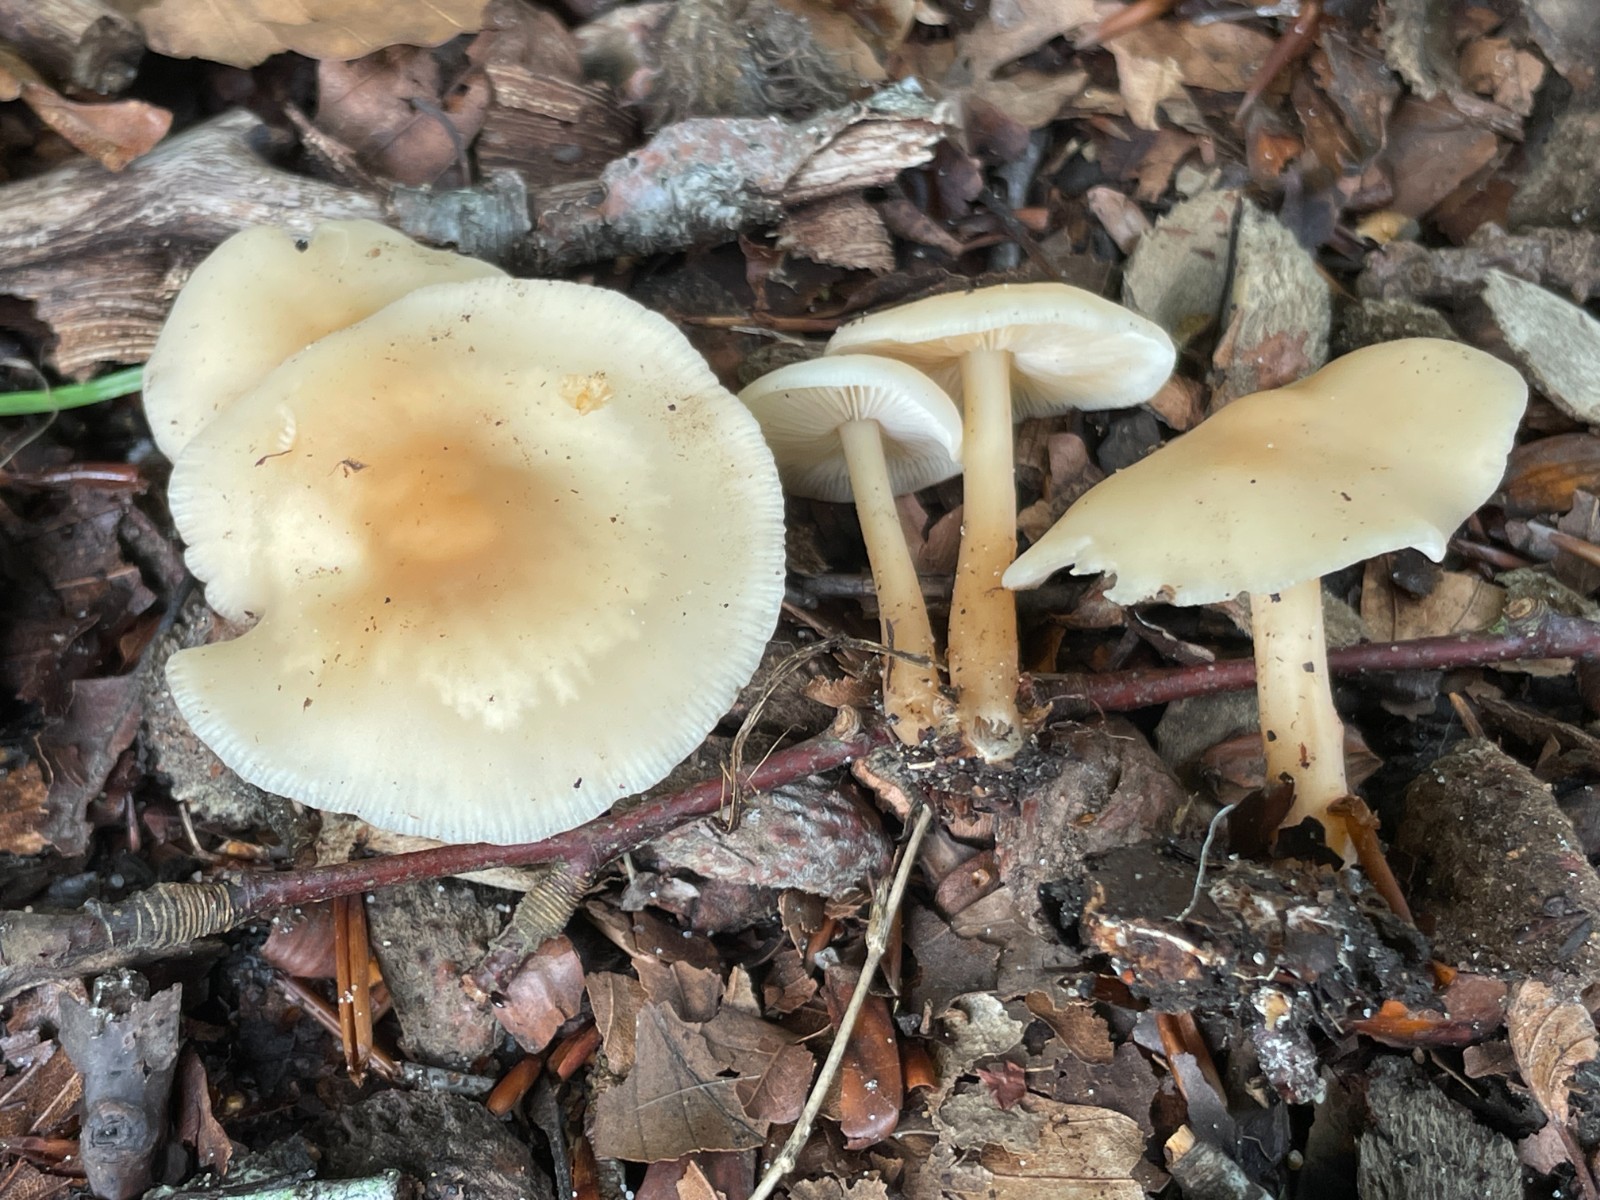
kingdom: Fungi
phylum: Basidiomycota
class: Agaricomycetes
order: Agaricales
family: Omphalotaceae
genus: Gymnopus
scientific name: Gymnopus aquosus
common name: bleg fladhat
